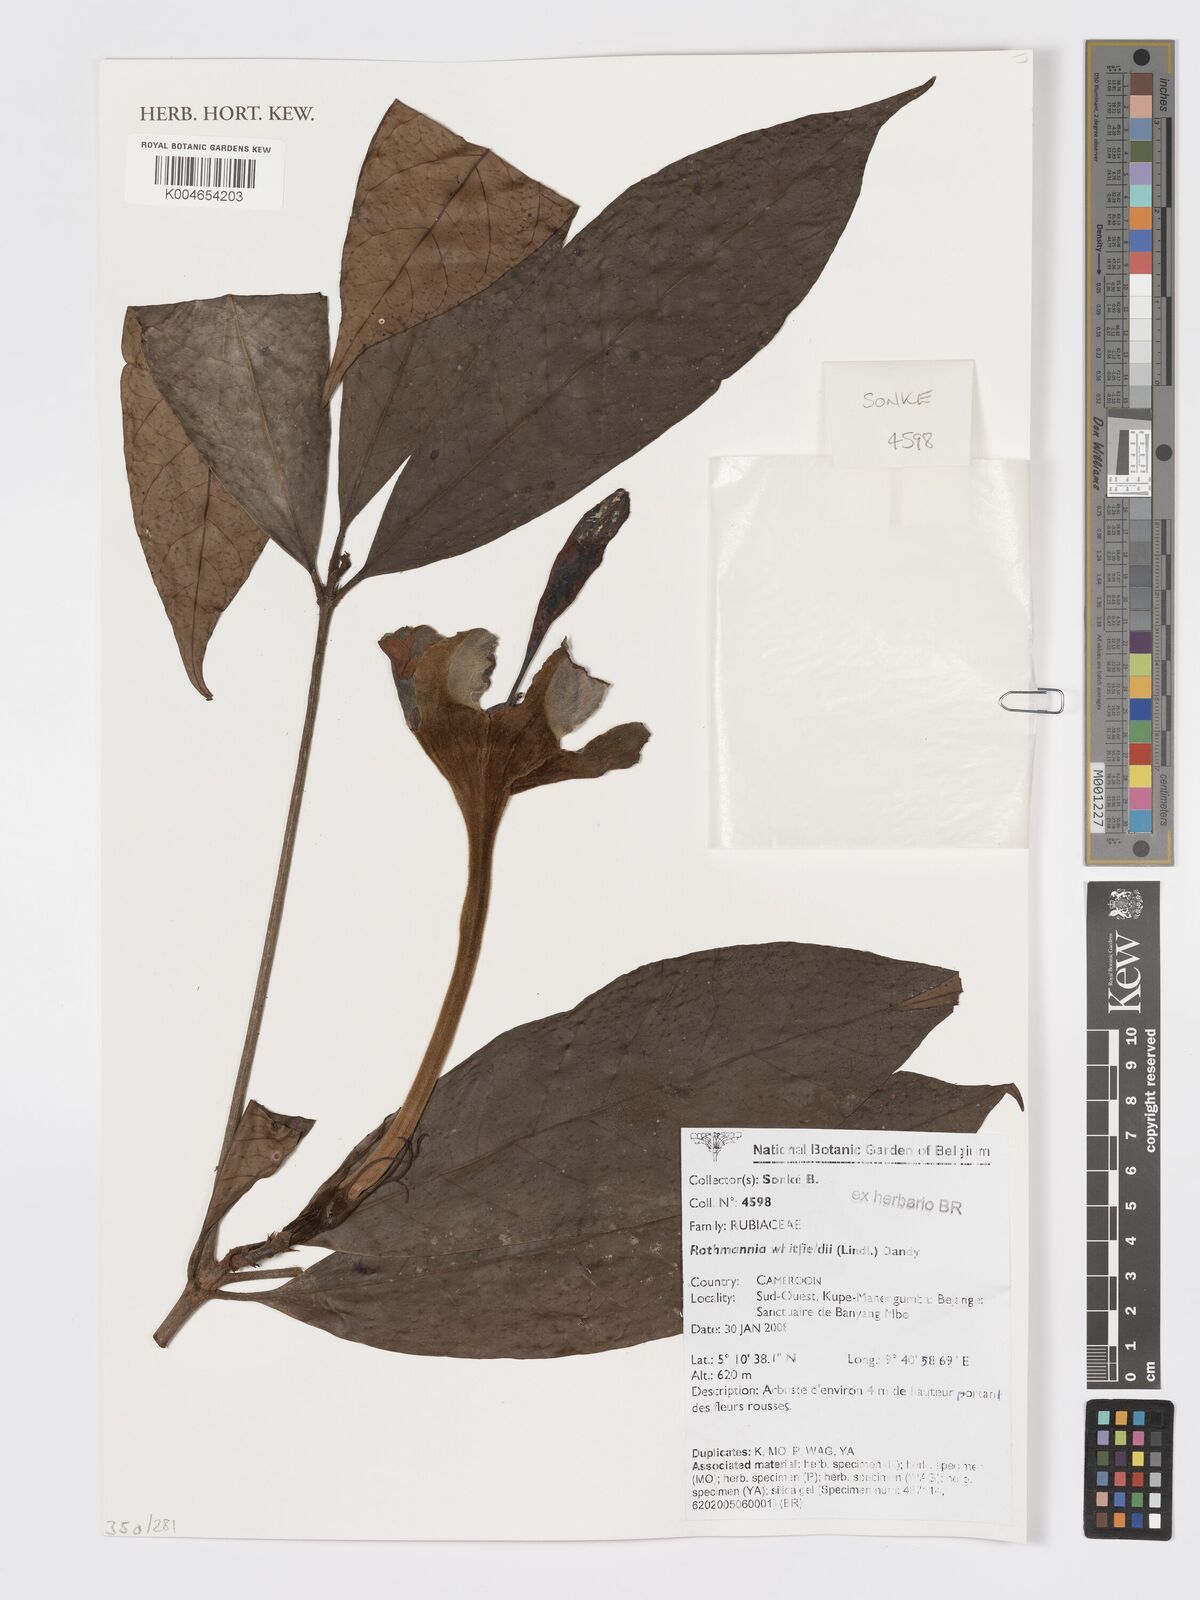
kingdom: Plantae
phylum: Tracheophyta
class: Magnoliopsida
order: Gentianales
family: Rubiaceae
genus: Rothmannia
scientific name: Rothmannia whitfieldii
